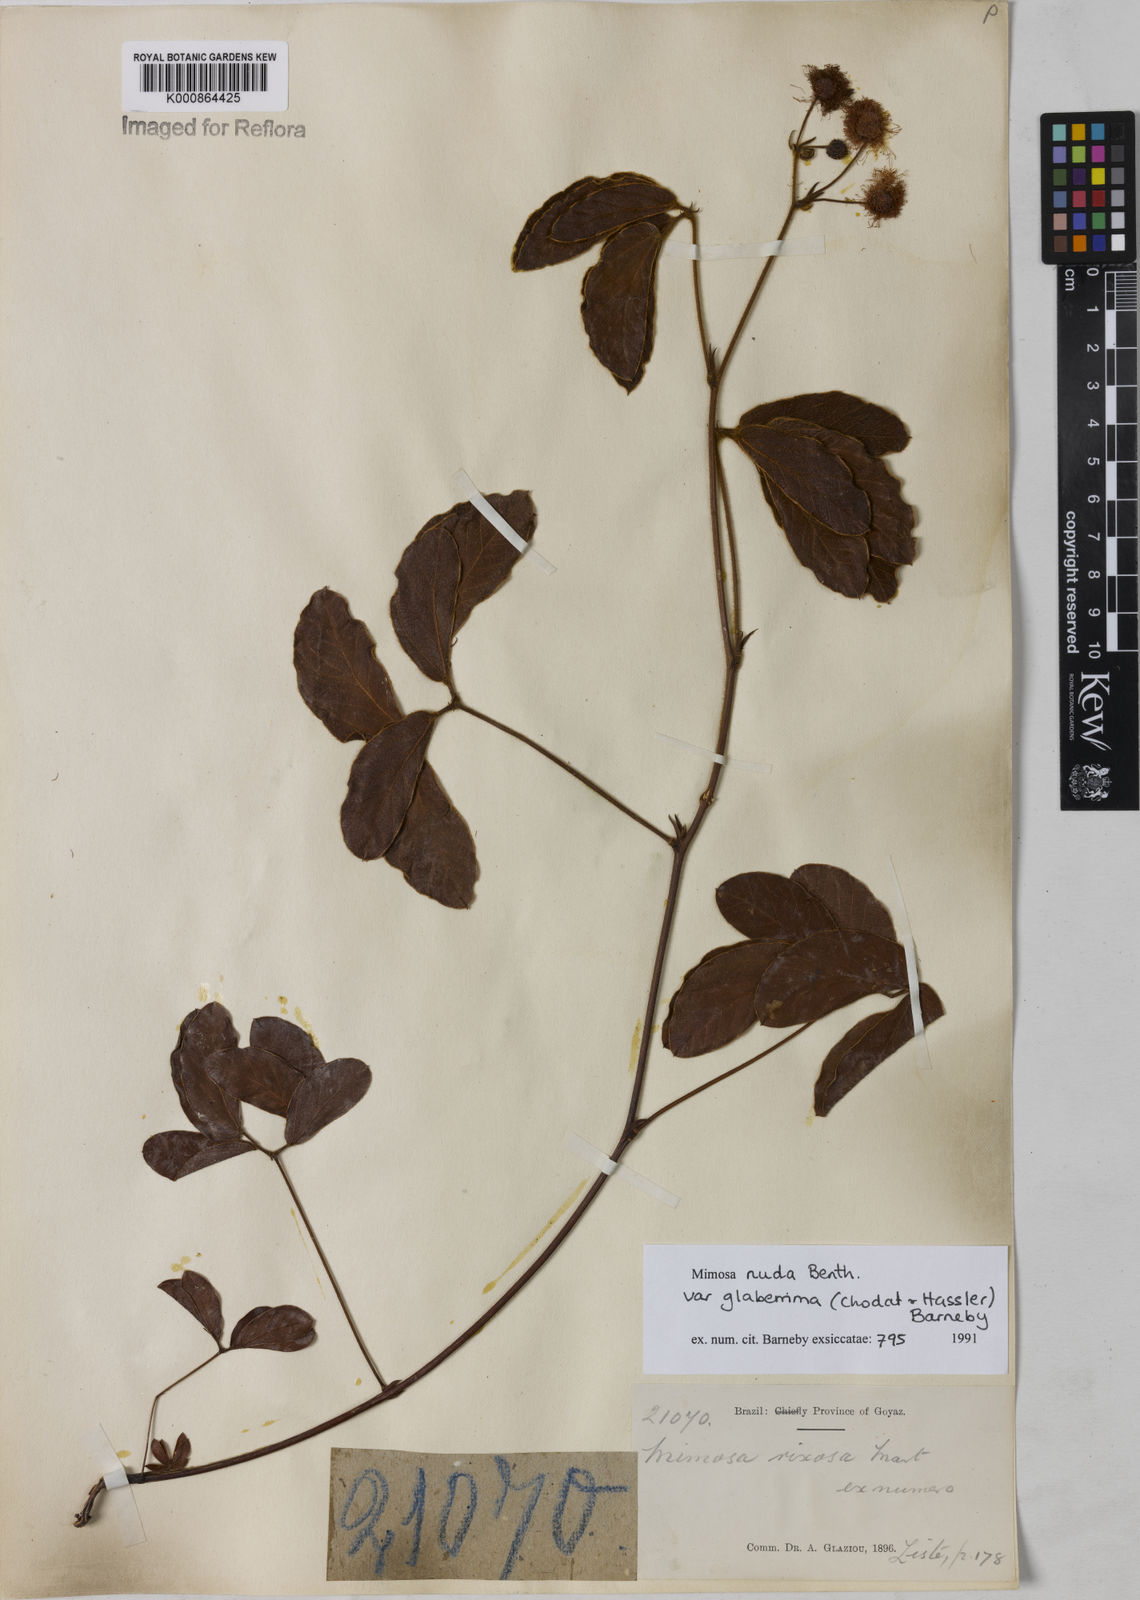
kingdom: Plantae
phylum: Tracheophyta
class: Magnoliopsida
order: Fabales
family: Fabaceae
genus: Mimosa
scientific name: Mimosa debilis
